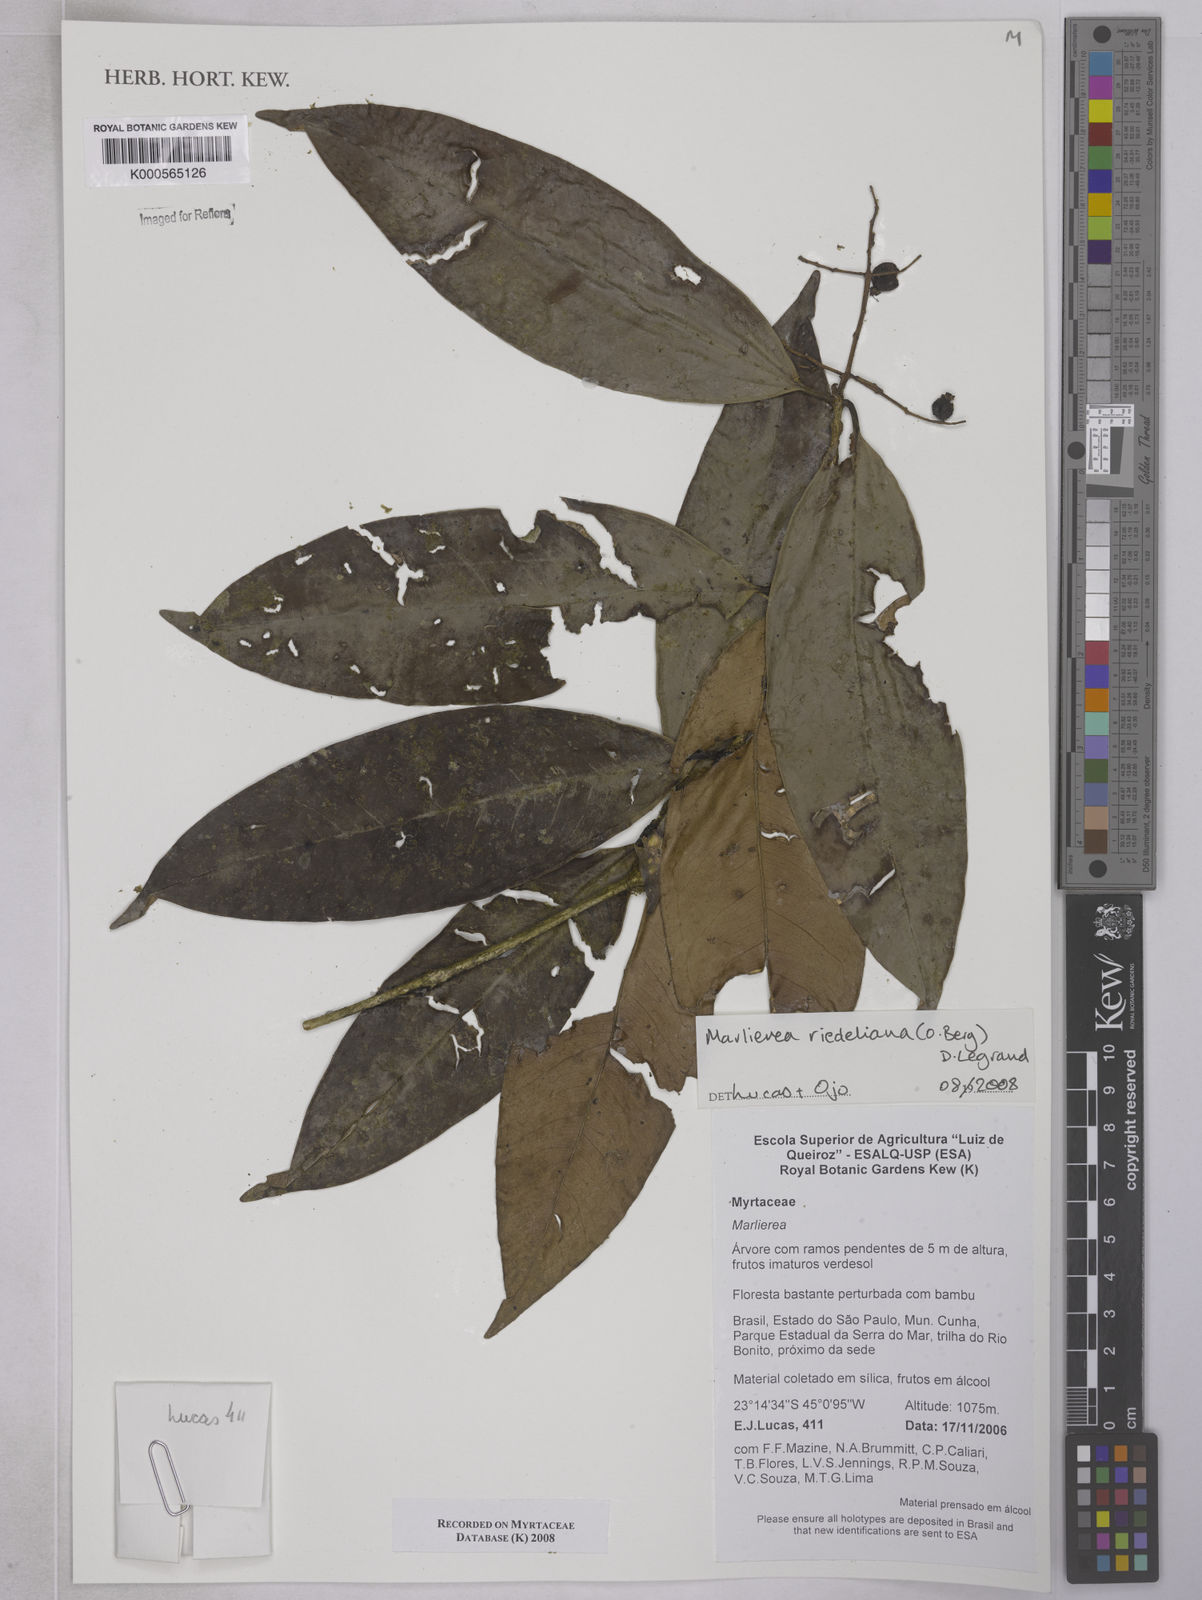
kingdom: Plantae
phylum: Tracheophyta
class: Magnoliopsida
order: Myrtales
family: Myrtaceae
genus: Myrcia
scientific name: Myrcia neoriedeliana
